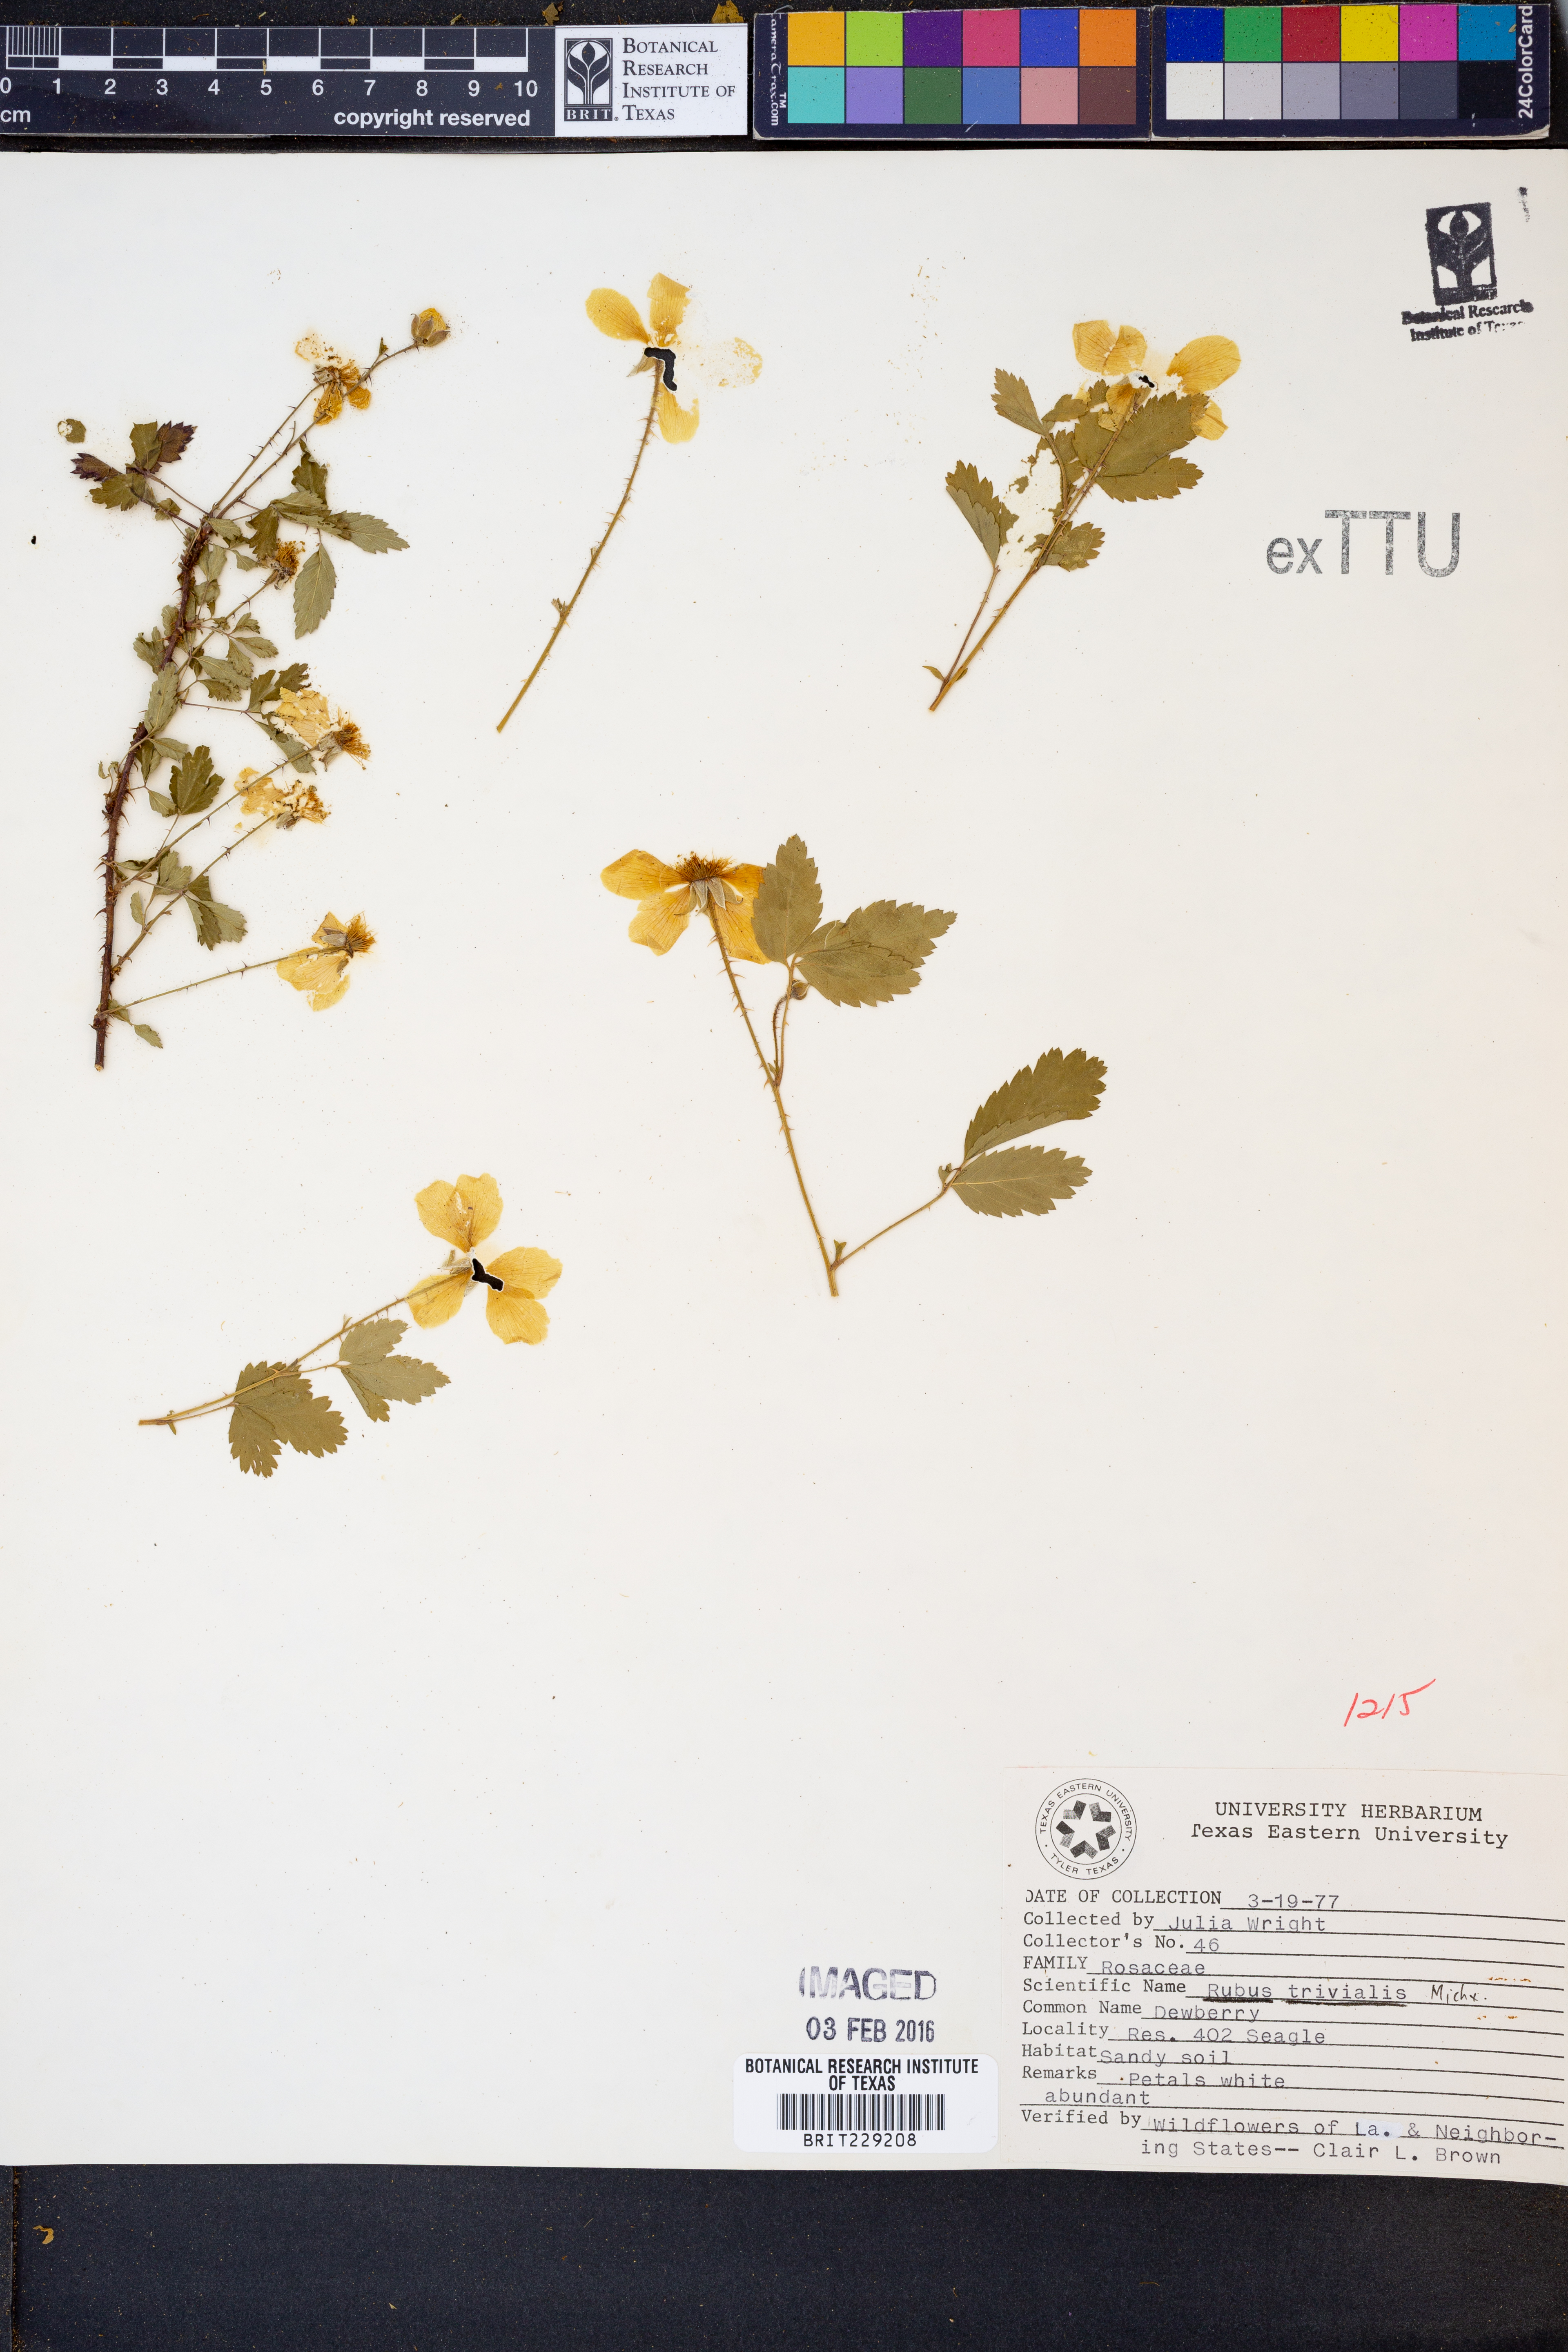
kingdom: Plantae
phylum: Tracheophyta
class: Magnoliopsida
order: Rosales
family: Rosaceae
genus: Rubus
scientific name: Rubus trivialis
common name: Southern dewberry
